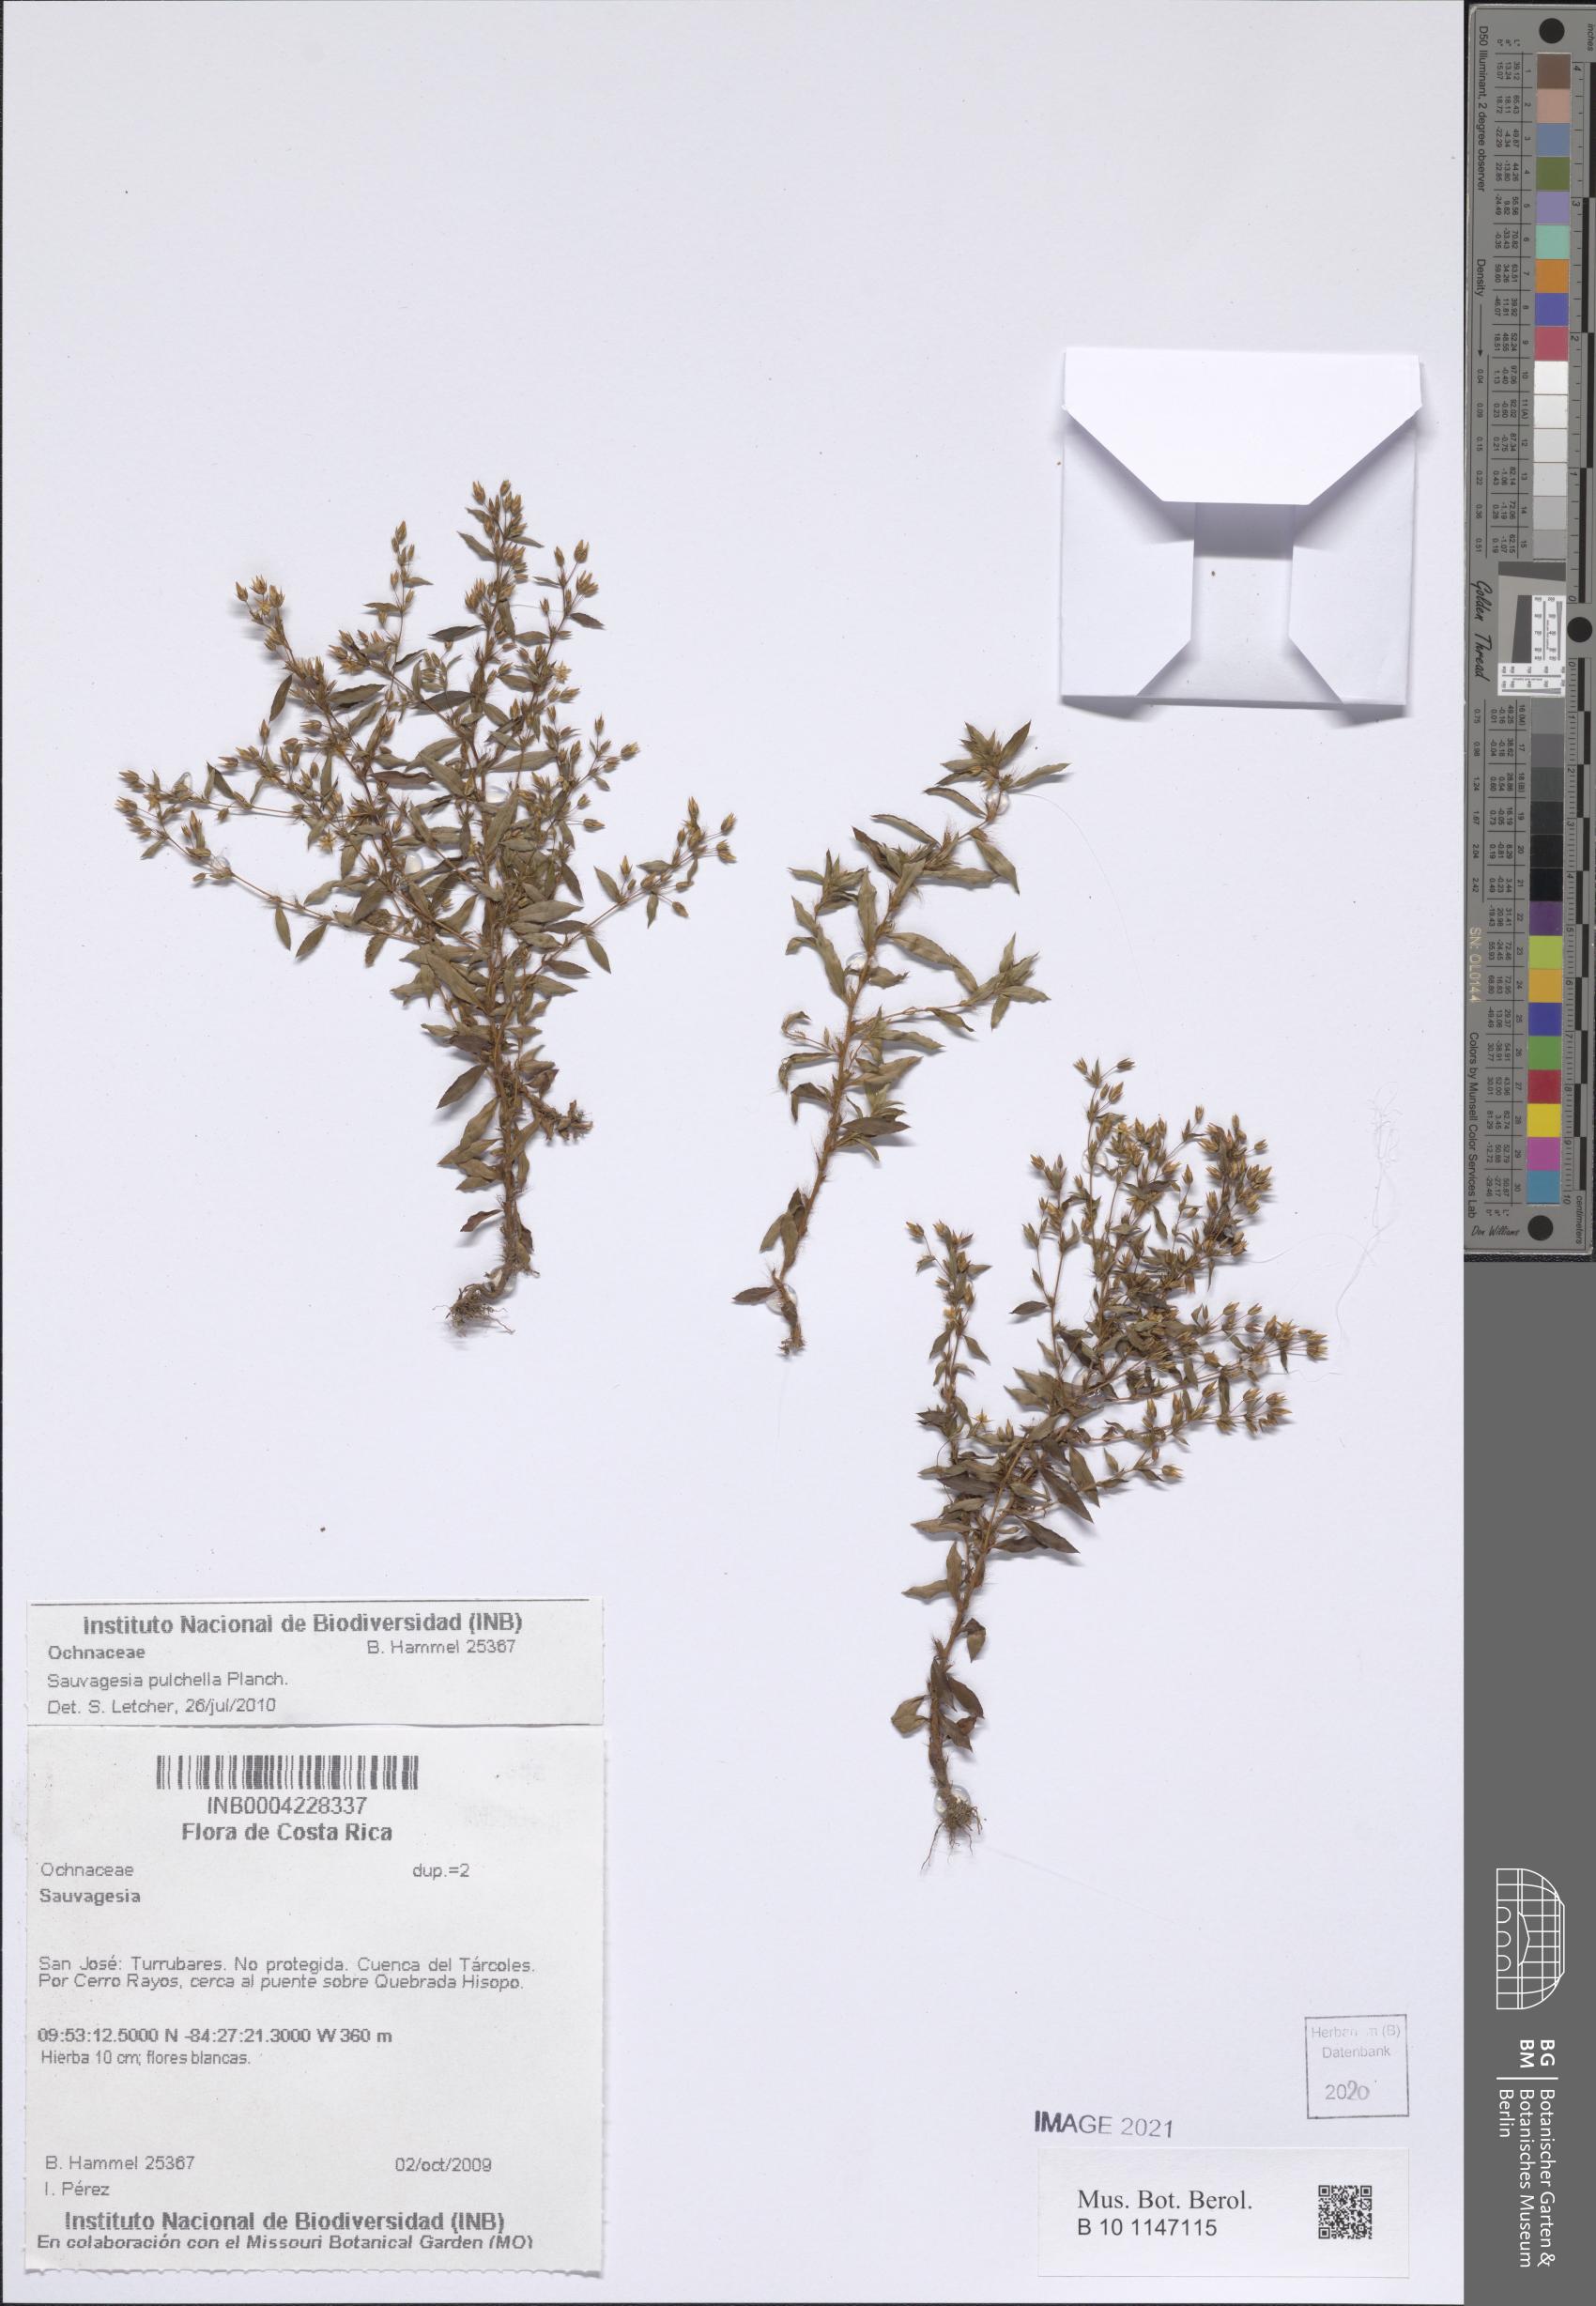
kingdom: Plantae
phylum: Tracheophyta
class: Magnoliopsida
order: Malpighiales
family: Ochnaceae
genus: Sauvagesia
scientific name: Sauvagesia pulchella
